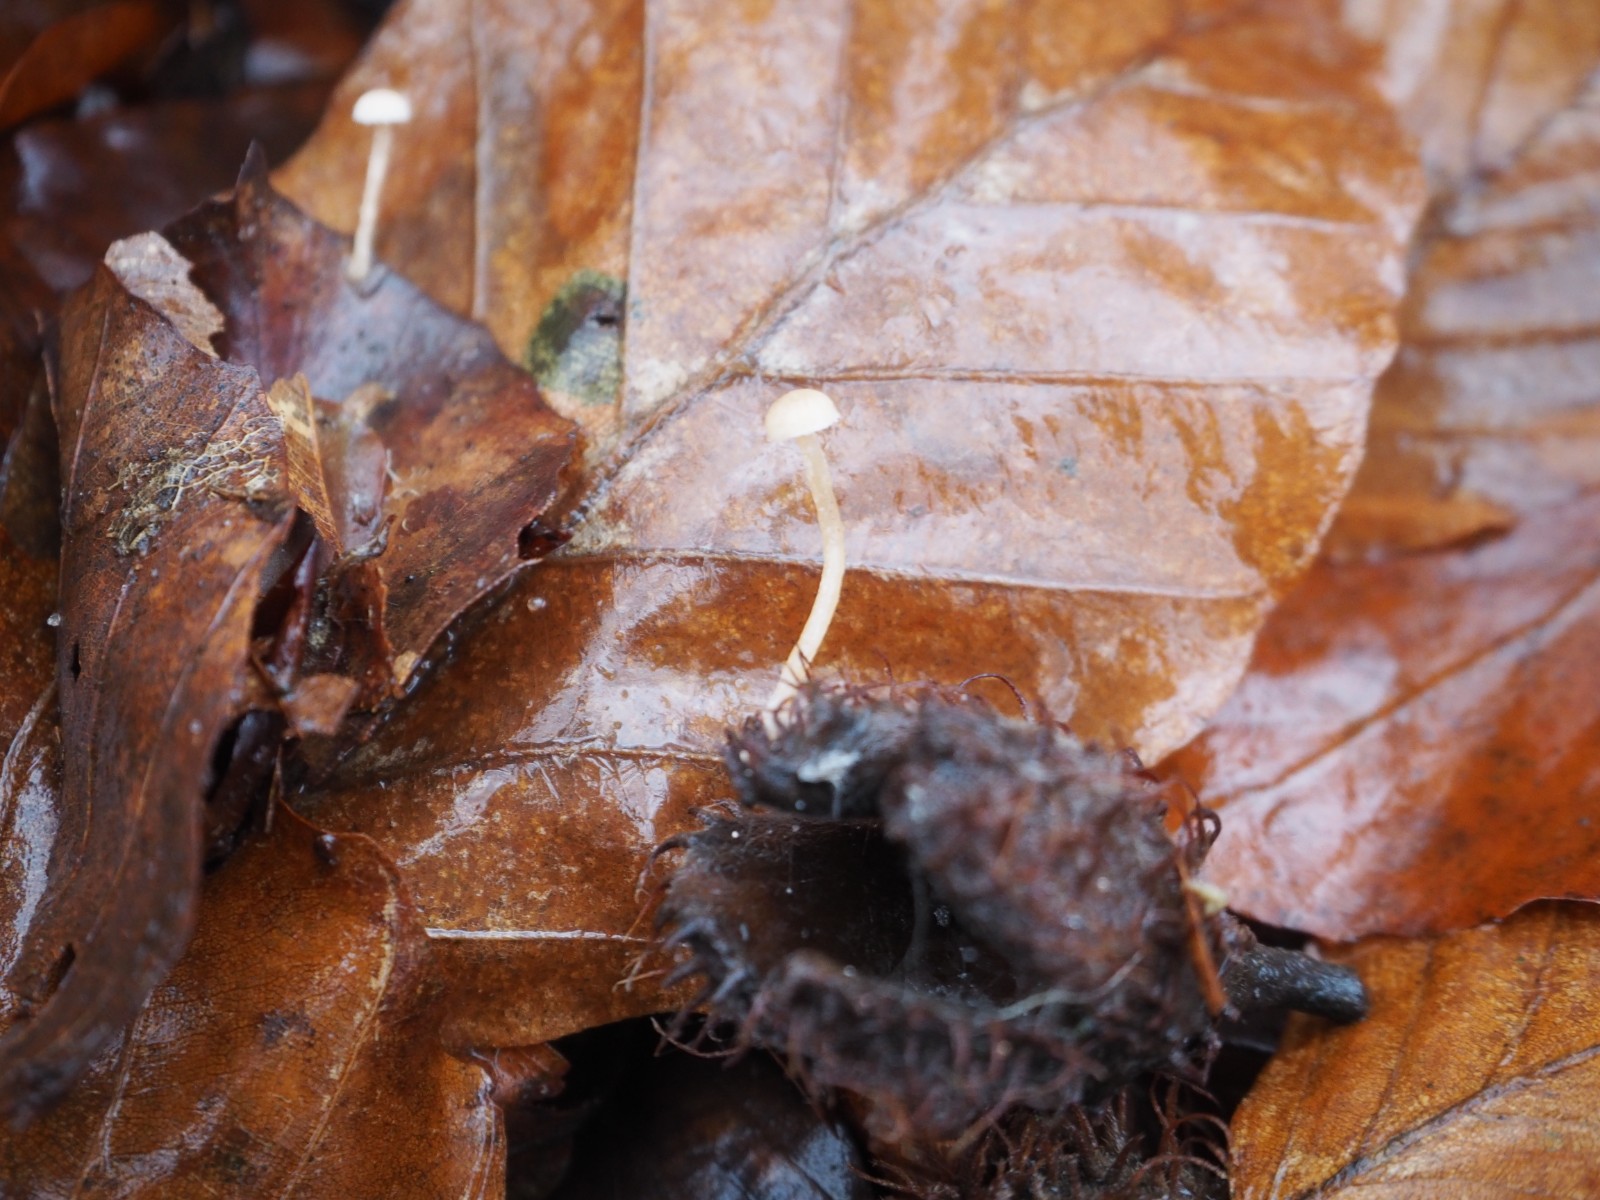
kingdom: Fungi
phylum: Basidiomycota
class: Agaricomycetes
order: Agaricales
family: Tubariaceae
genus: Flammulaster
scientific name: Flammulaster carpophilus
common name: blegrosa grynskælhat
